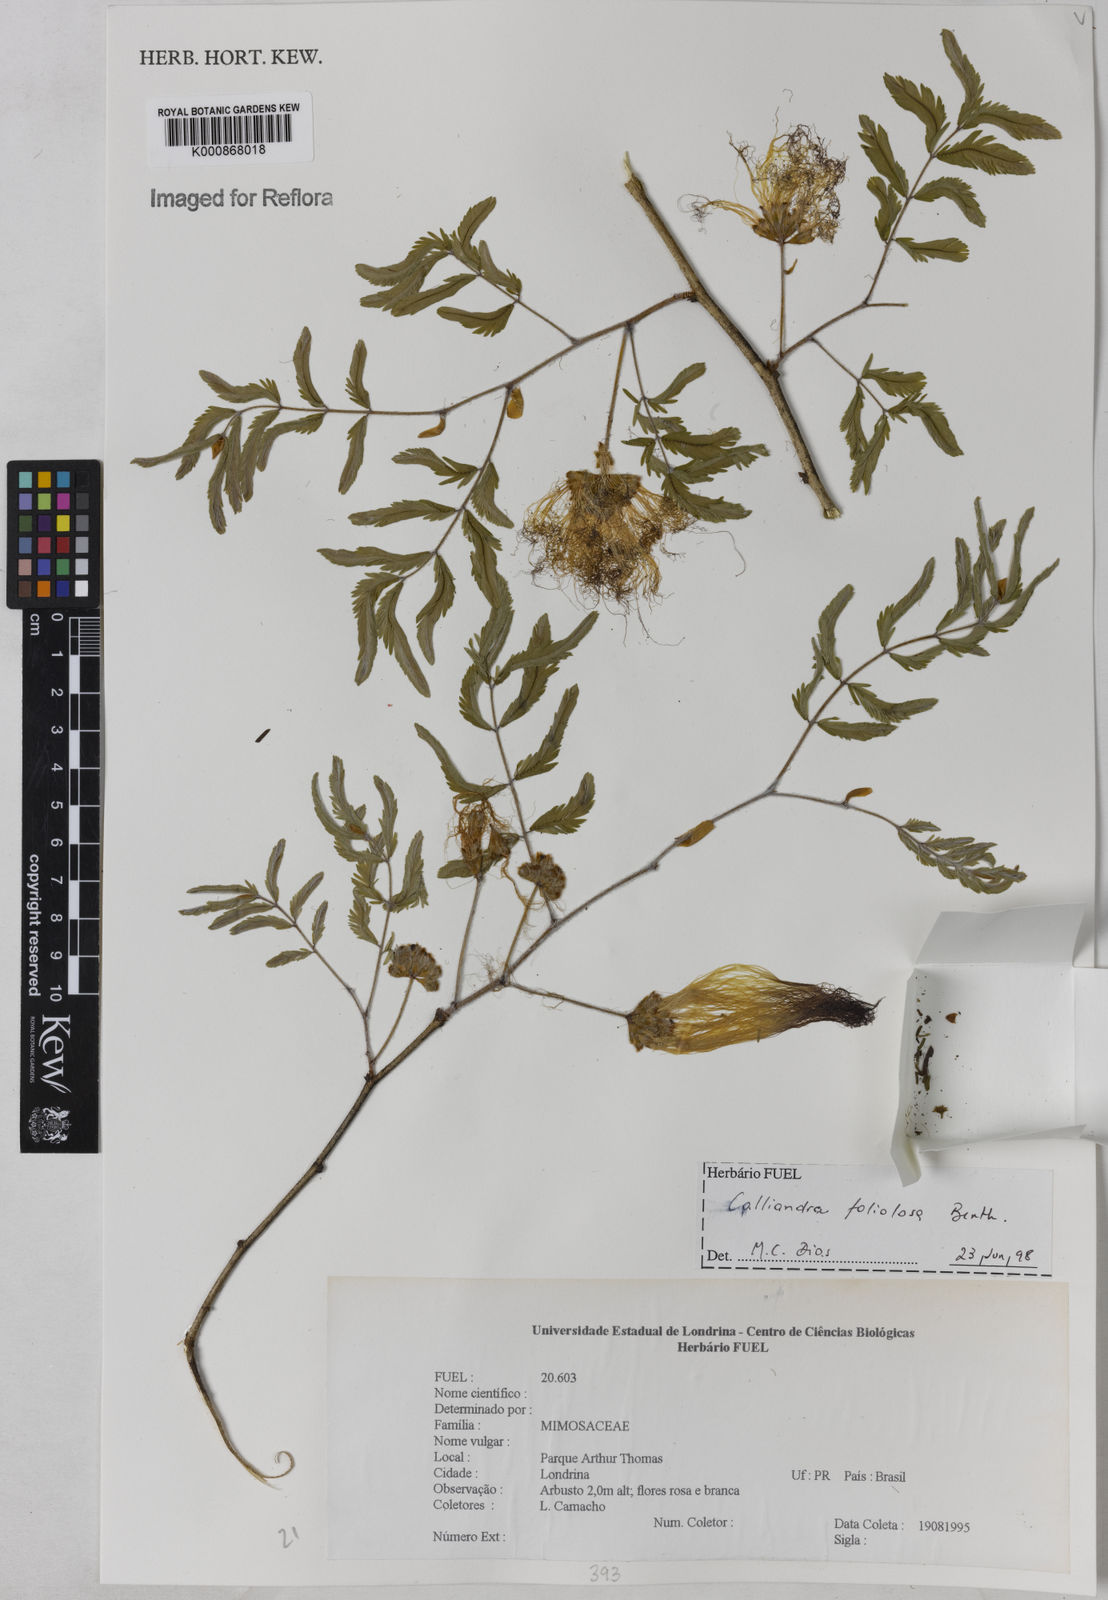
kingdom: Plantae
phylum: Tracheophyta
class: Magnoliopsida
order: Fabales
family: Fabaceae
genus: Calliandra
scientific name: Calliandra foliolosa
